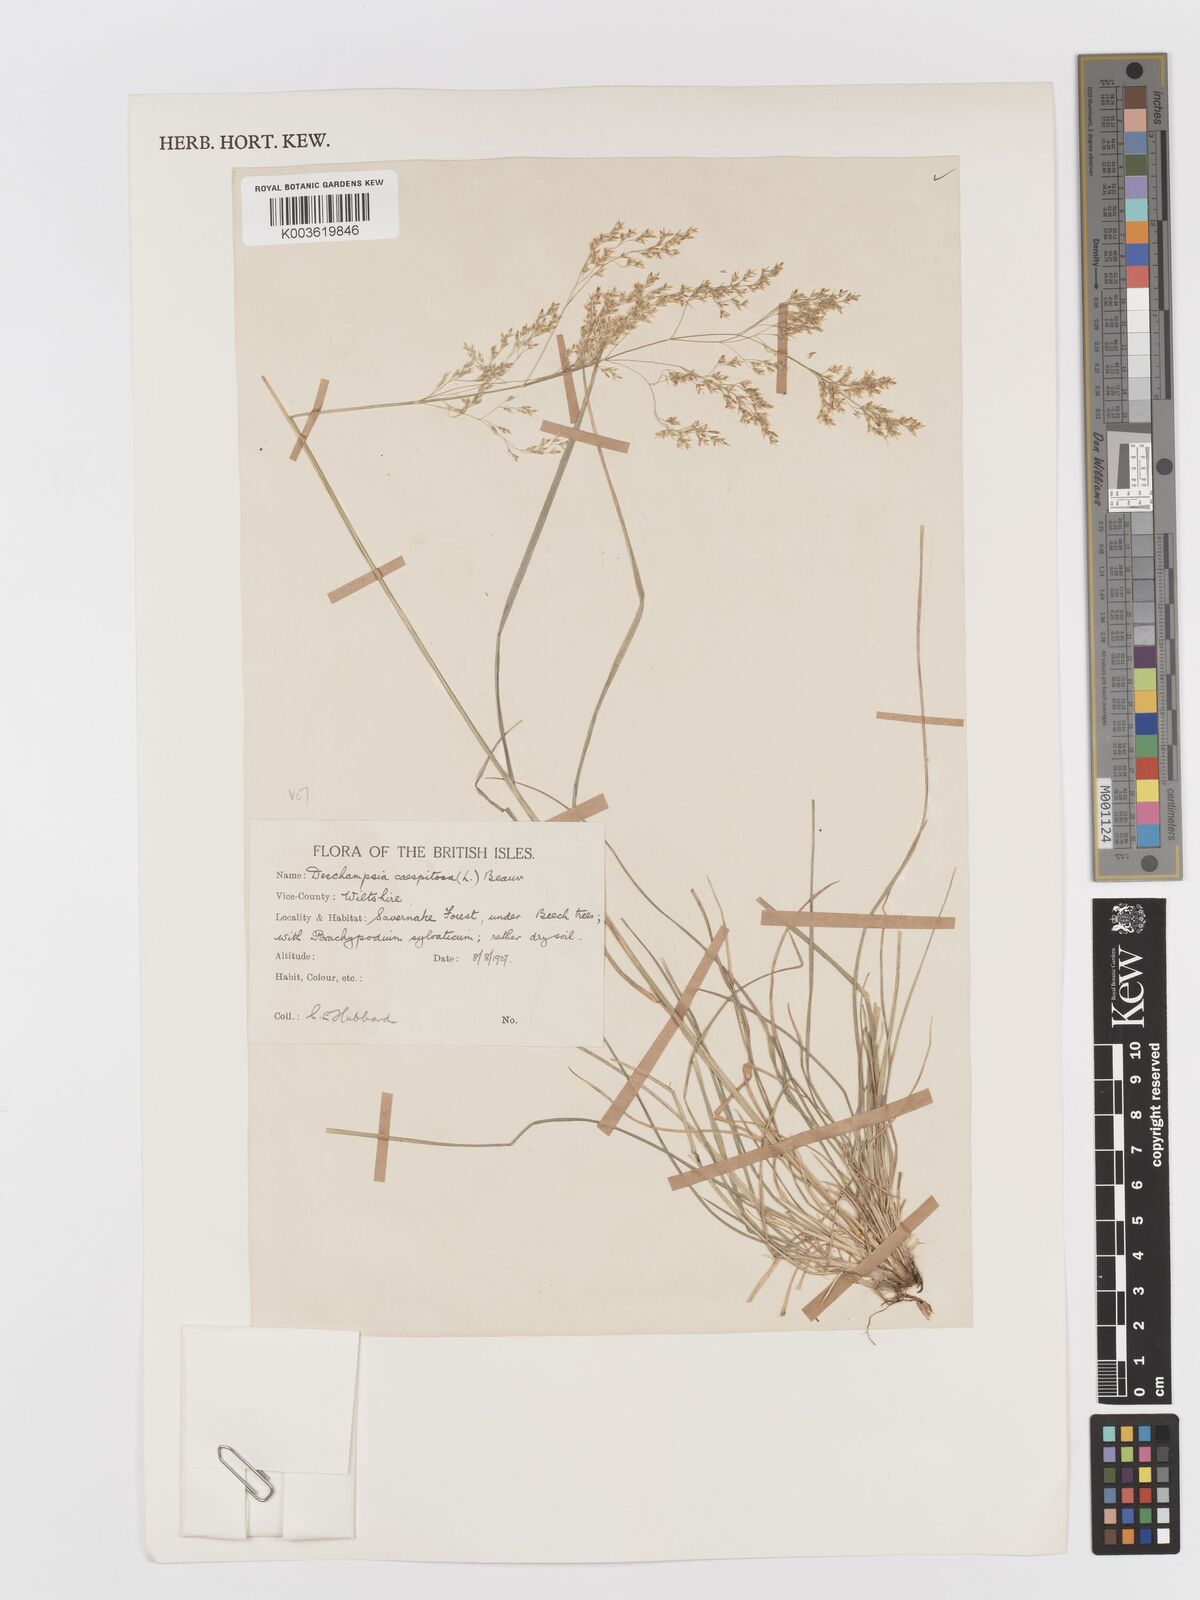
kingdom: Plantae
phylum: Tracheophyta
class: Liliopsida
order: Poales
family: Poaceae
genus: Deschampsia
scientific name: Deschampsia cespitosa
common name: Tufted hair-grass
